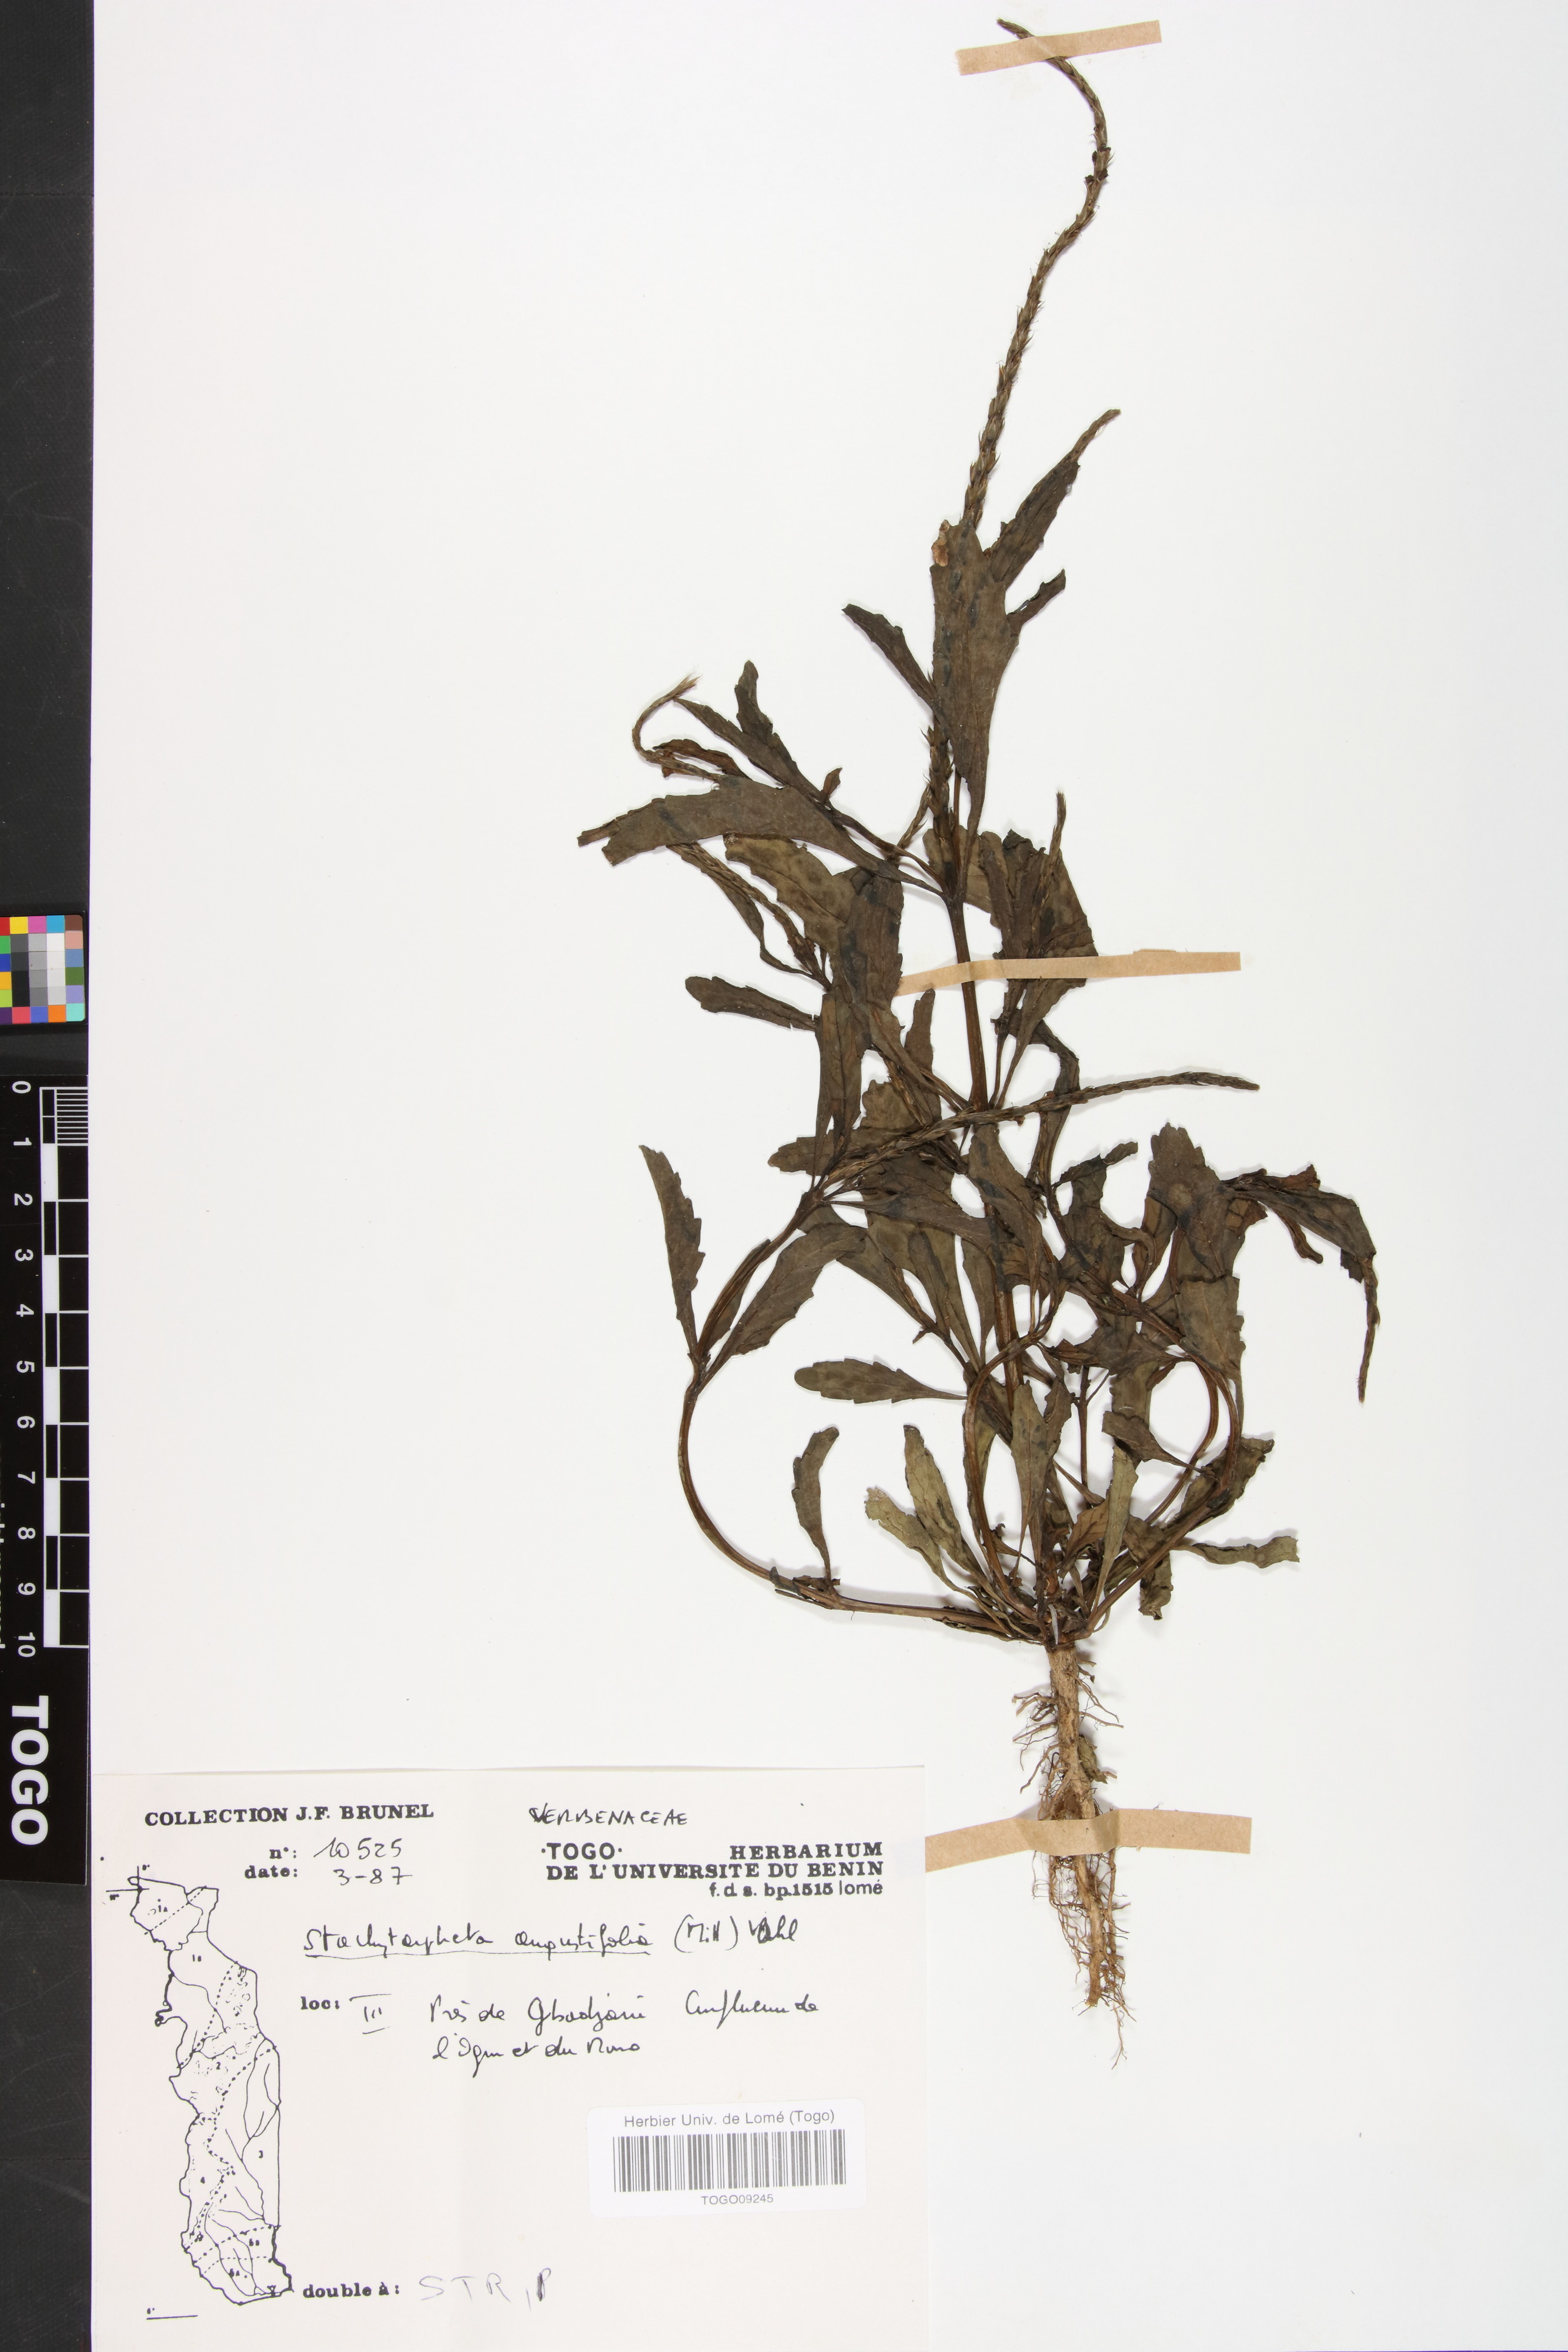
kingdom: Plantae
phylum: Tracheophyta
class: Magnoliopsida
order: Lamiales
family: Verbenaceae
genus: Stachytarpheta
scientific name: Stachytarpheta indica
